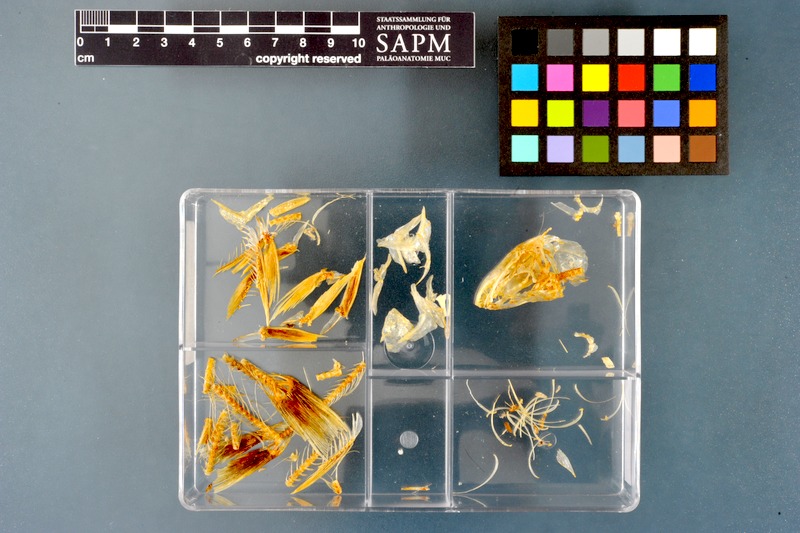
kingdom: Animalia
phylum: Chordata
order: Osmeriformes
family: Osmeridae
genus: Osmerus
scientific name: Osmerus eperlanus
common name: Smelt
